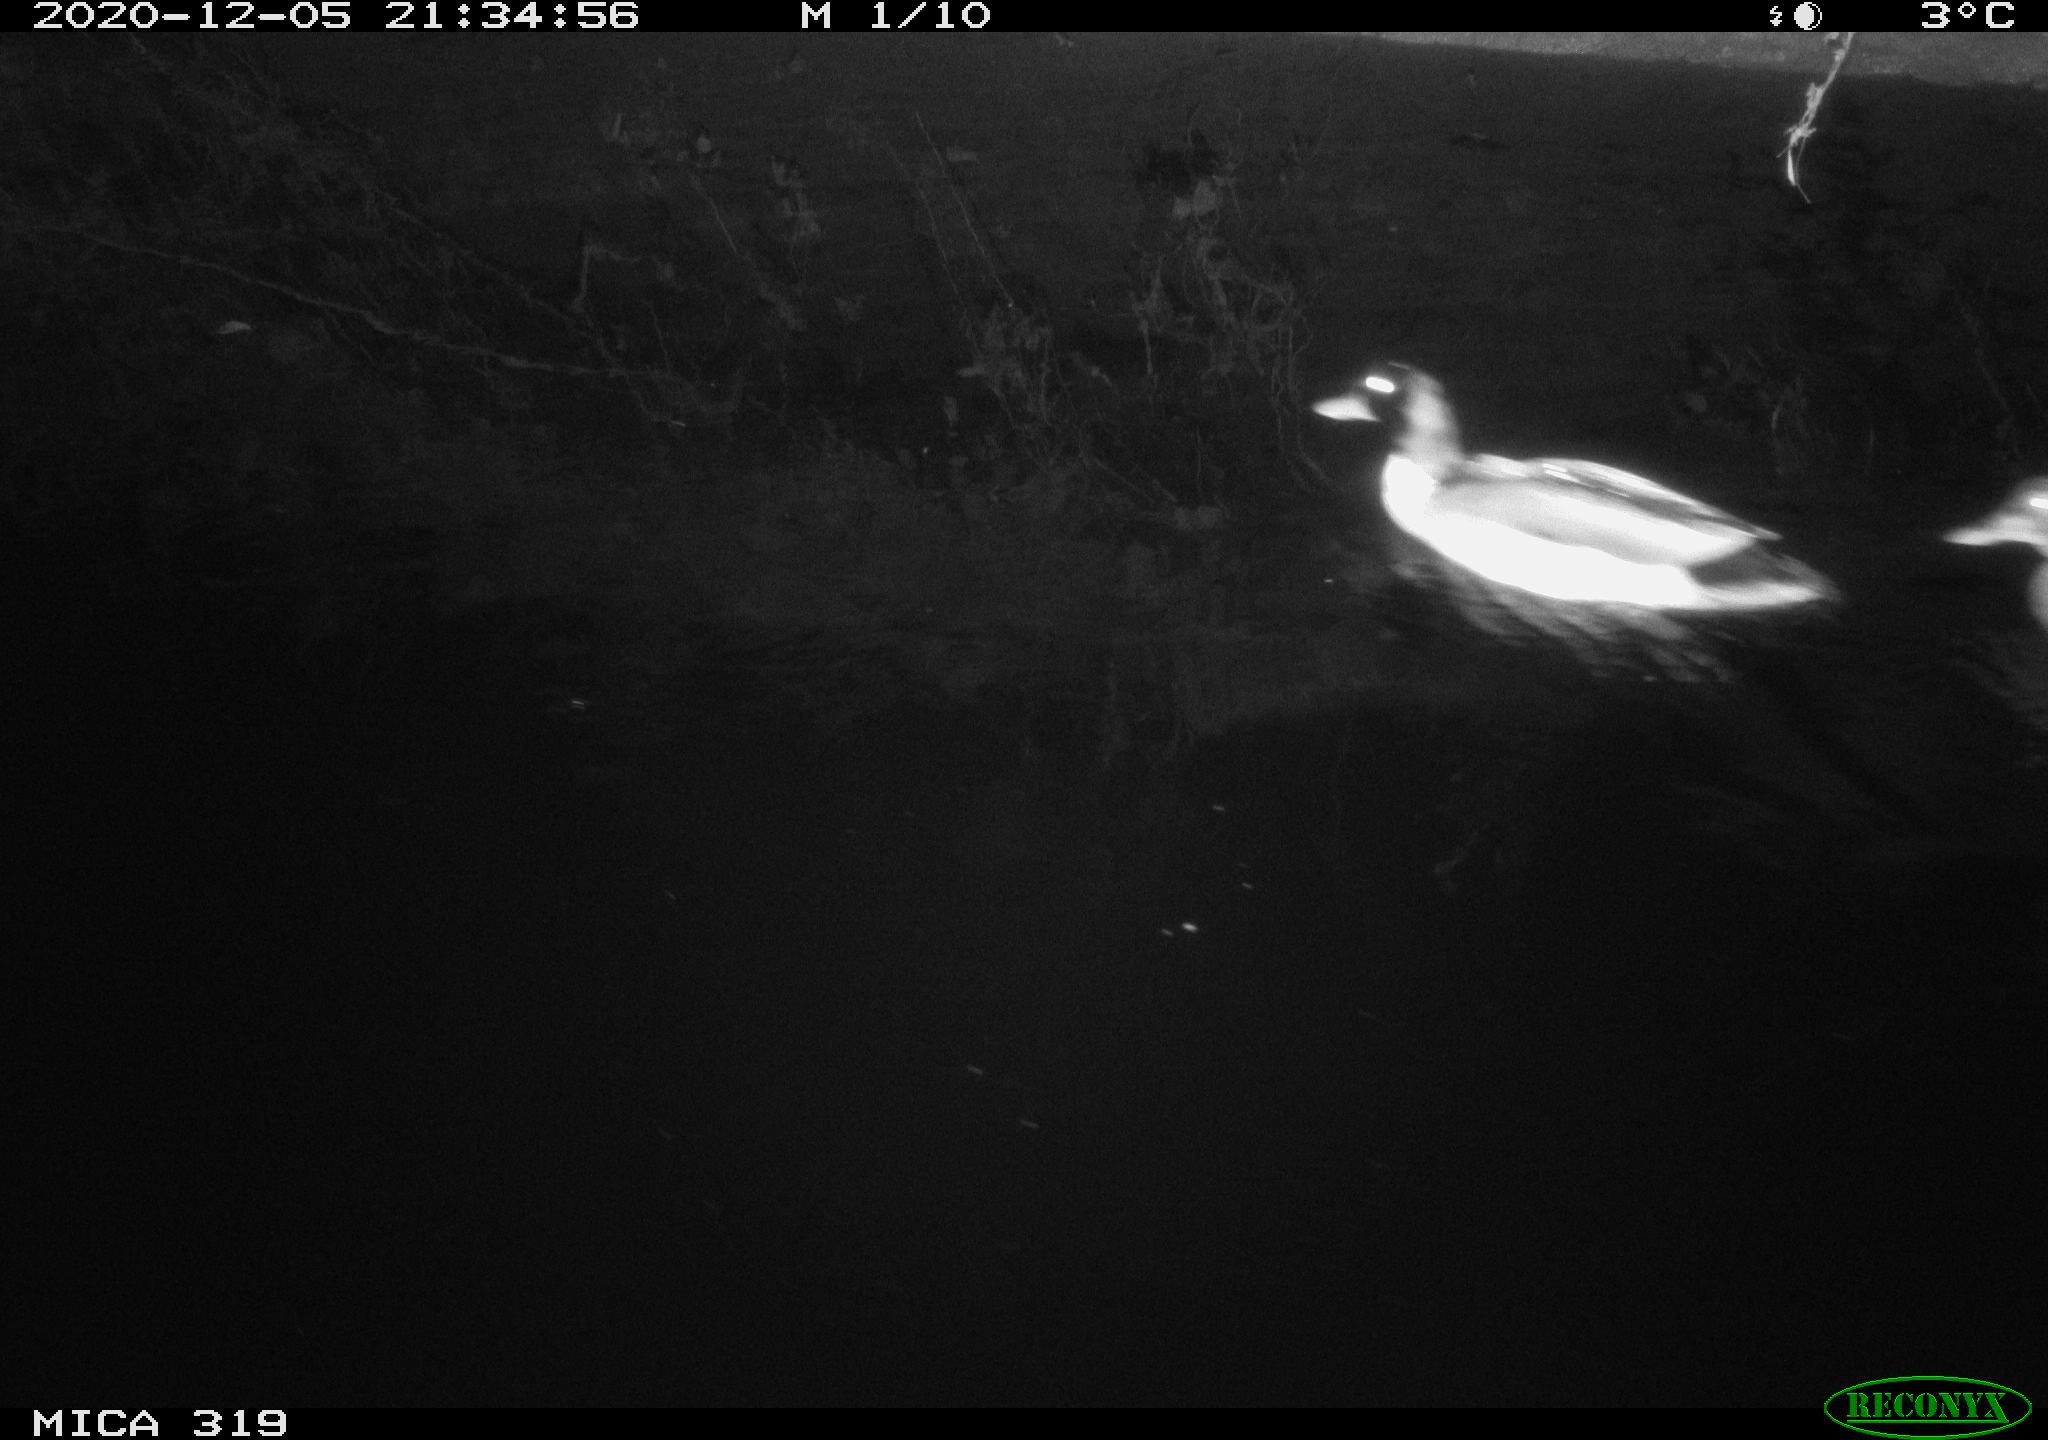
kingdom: Animalia
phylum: Chordata
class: Aves
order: Anseriformes
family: Anatidae
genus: Anas
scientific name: Anas platyrhynchos
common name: Mallard
